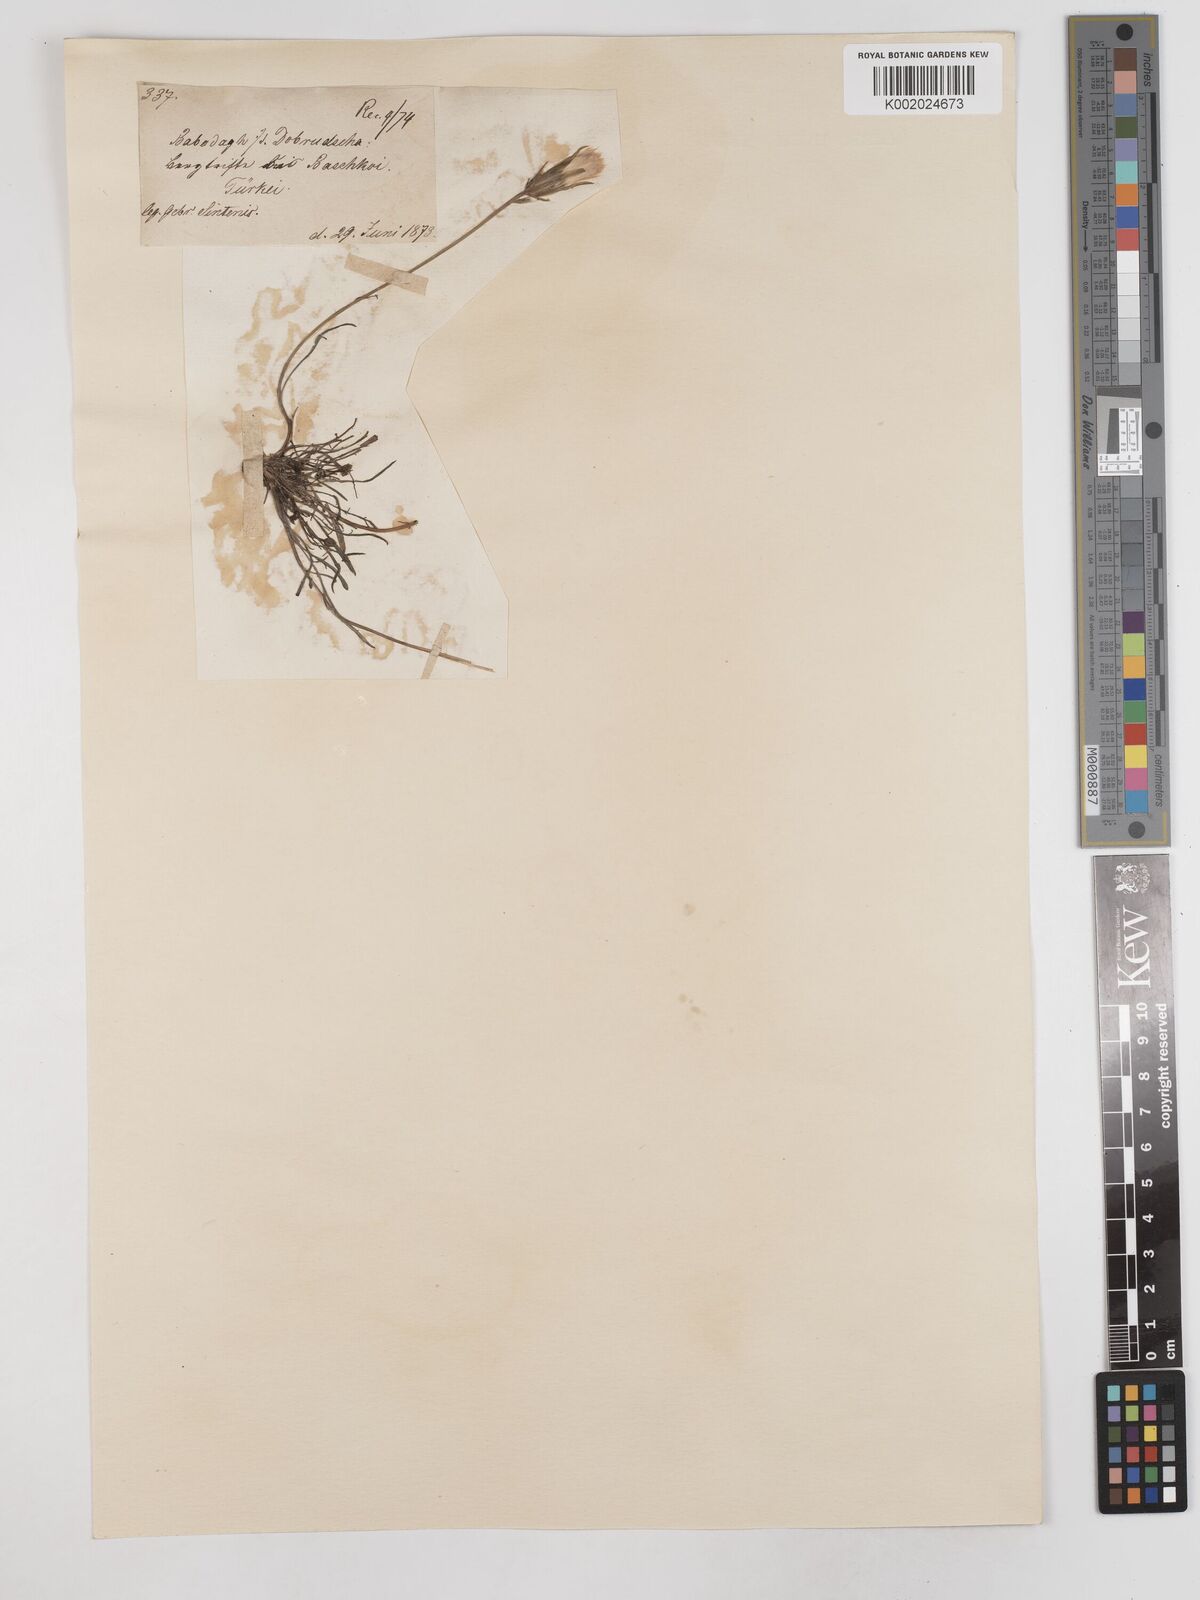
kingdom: Plantae
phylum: Tracheophyta
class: Magnoliopsida
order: Asterales
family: Asteraceae
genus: Scorzonera
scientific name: Scorzonera cana
